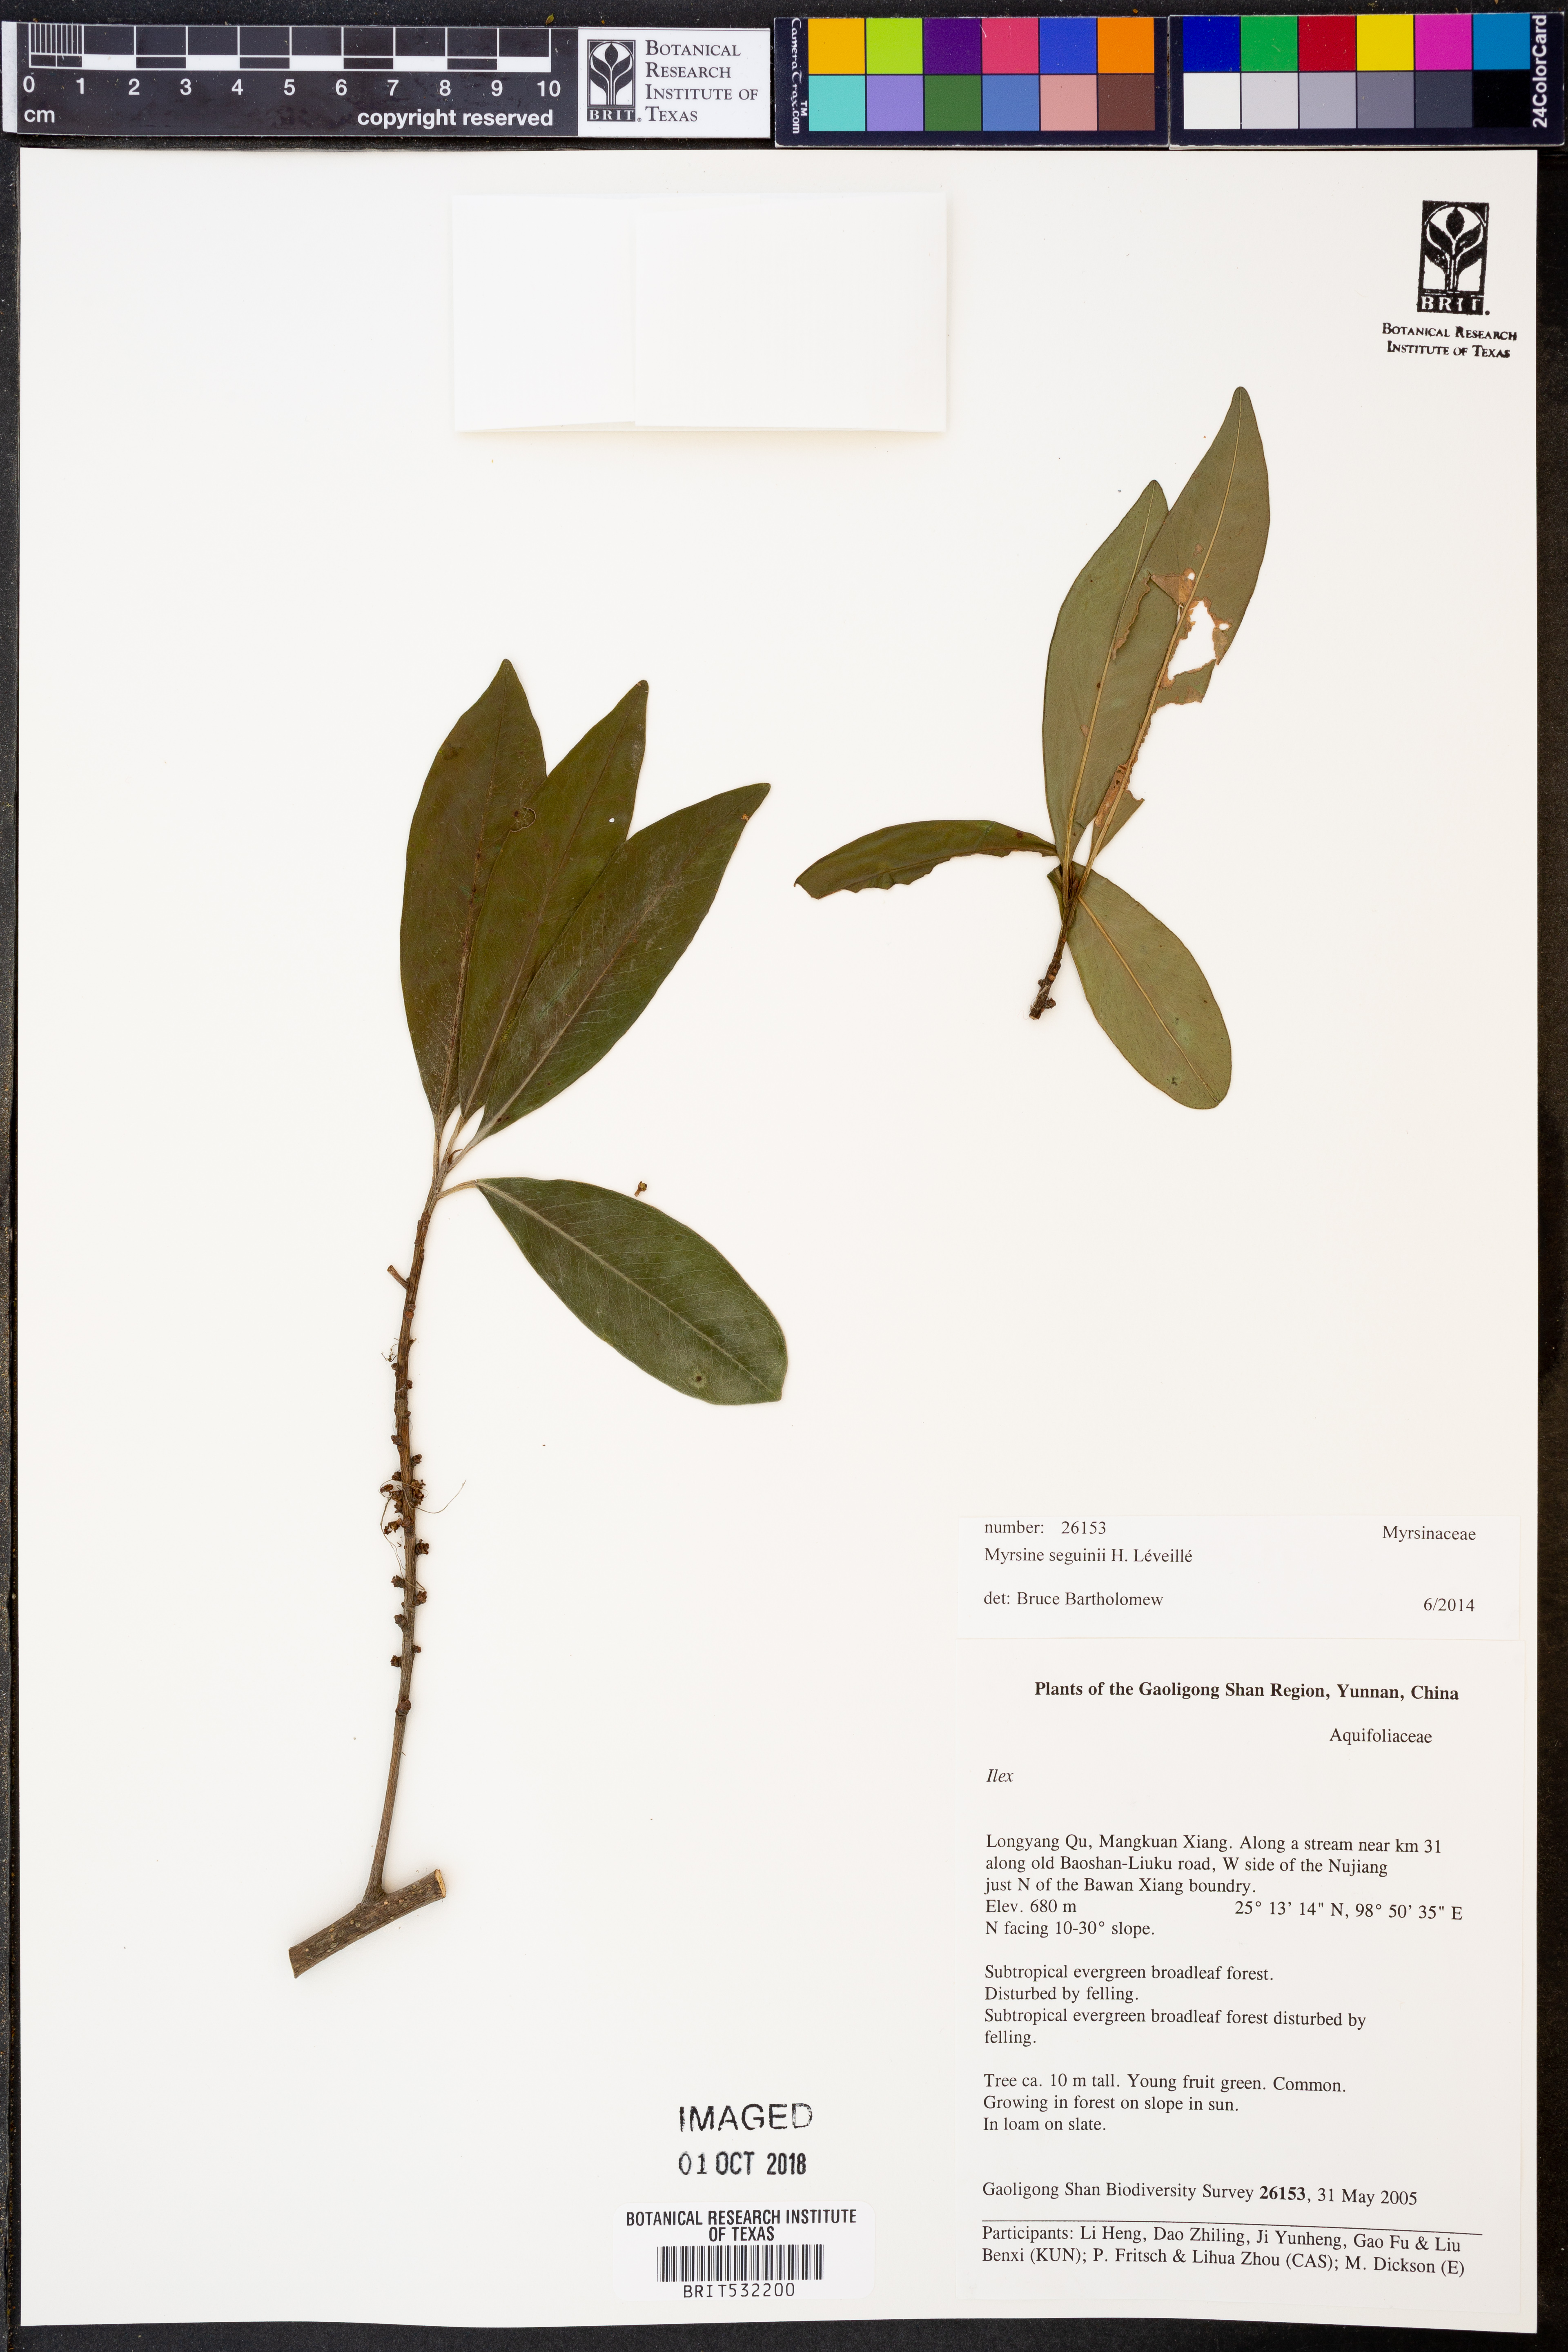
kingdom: Plantae
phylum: Tracheophyta
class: Magnoliopsida
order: Ericales
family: Primulaceae
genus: Myrsine
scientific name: Myrsine seguinii
